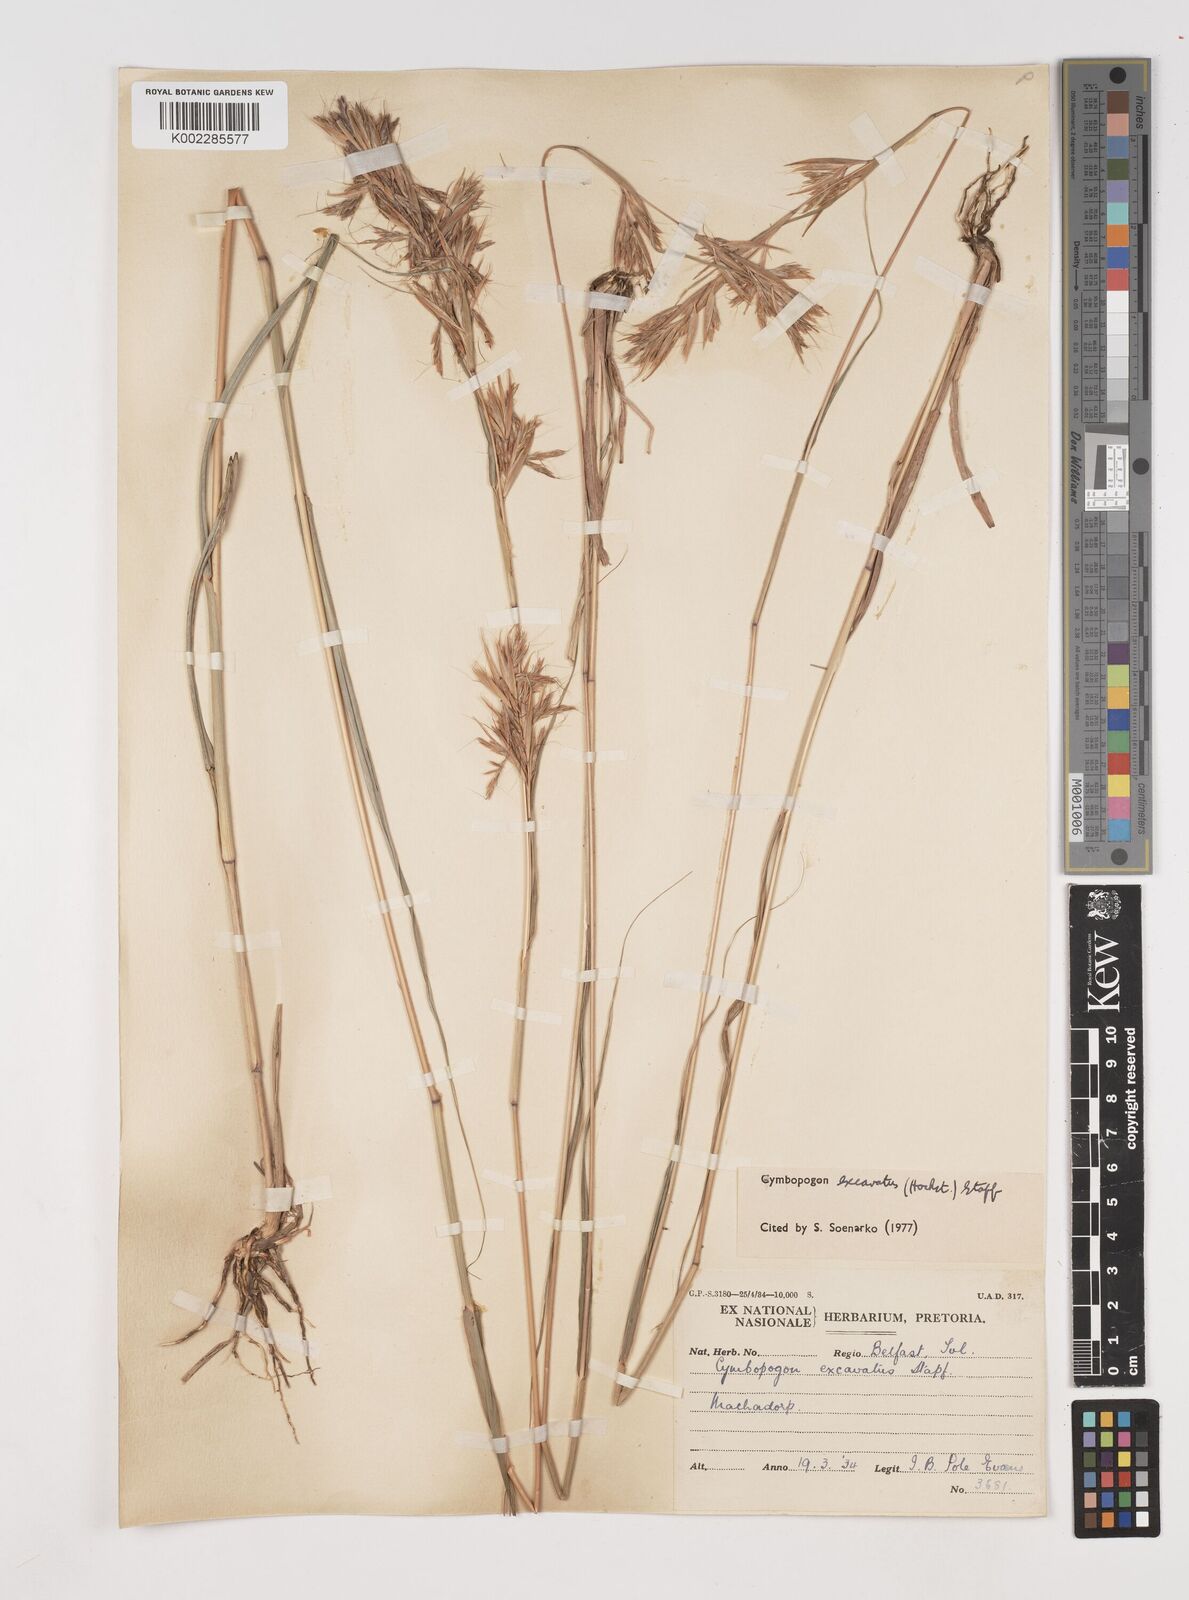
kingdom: Plantae
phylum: Tracheophyta
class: Liliopsida
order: Poales
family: Poaceae
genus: Cymbopogon
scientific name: Cymbopogon caesius
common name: Kachi grass
